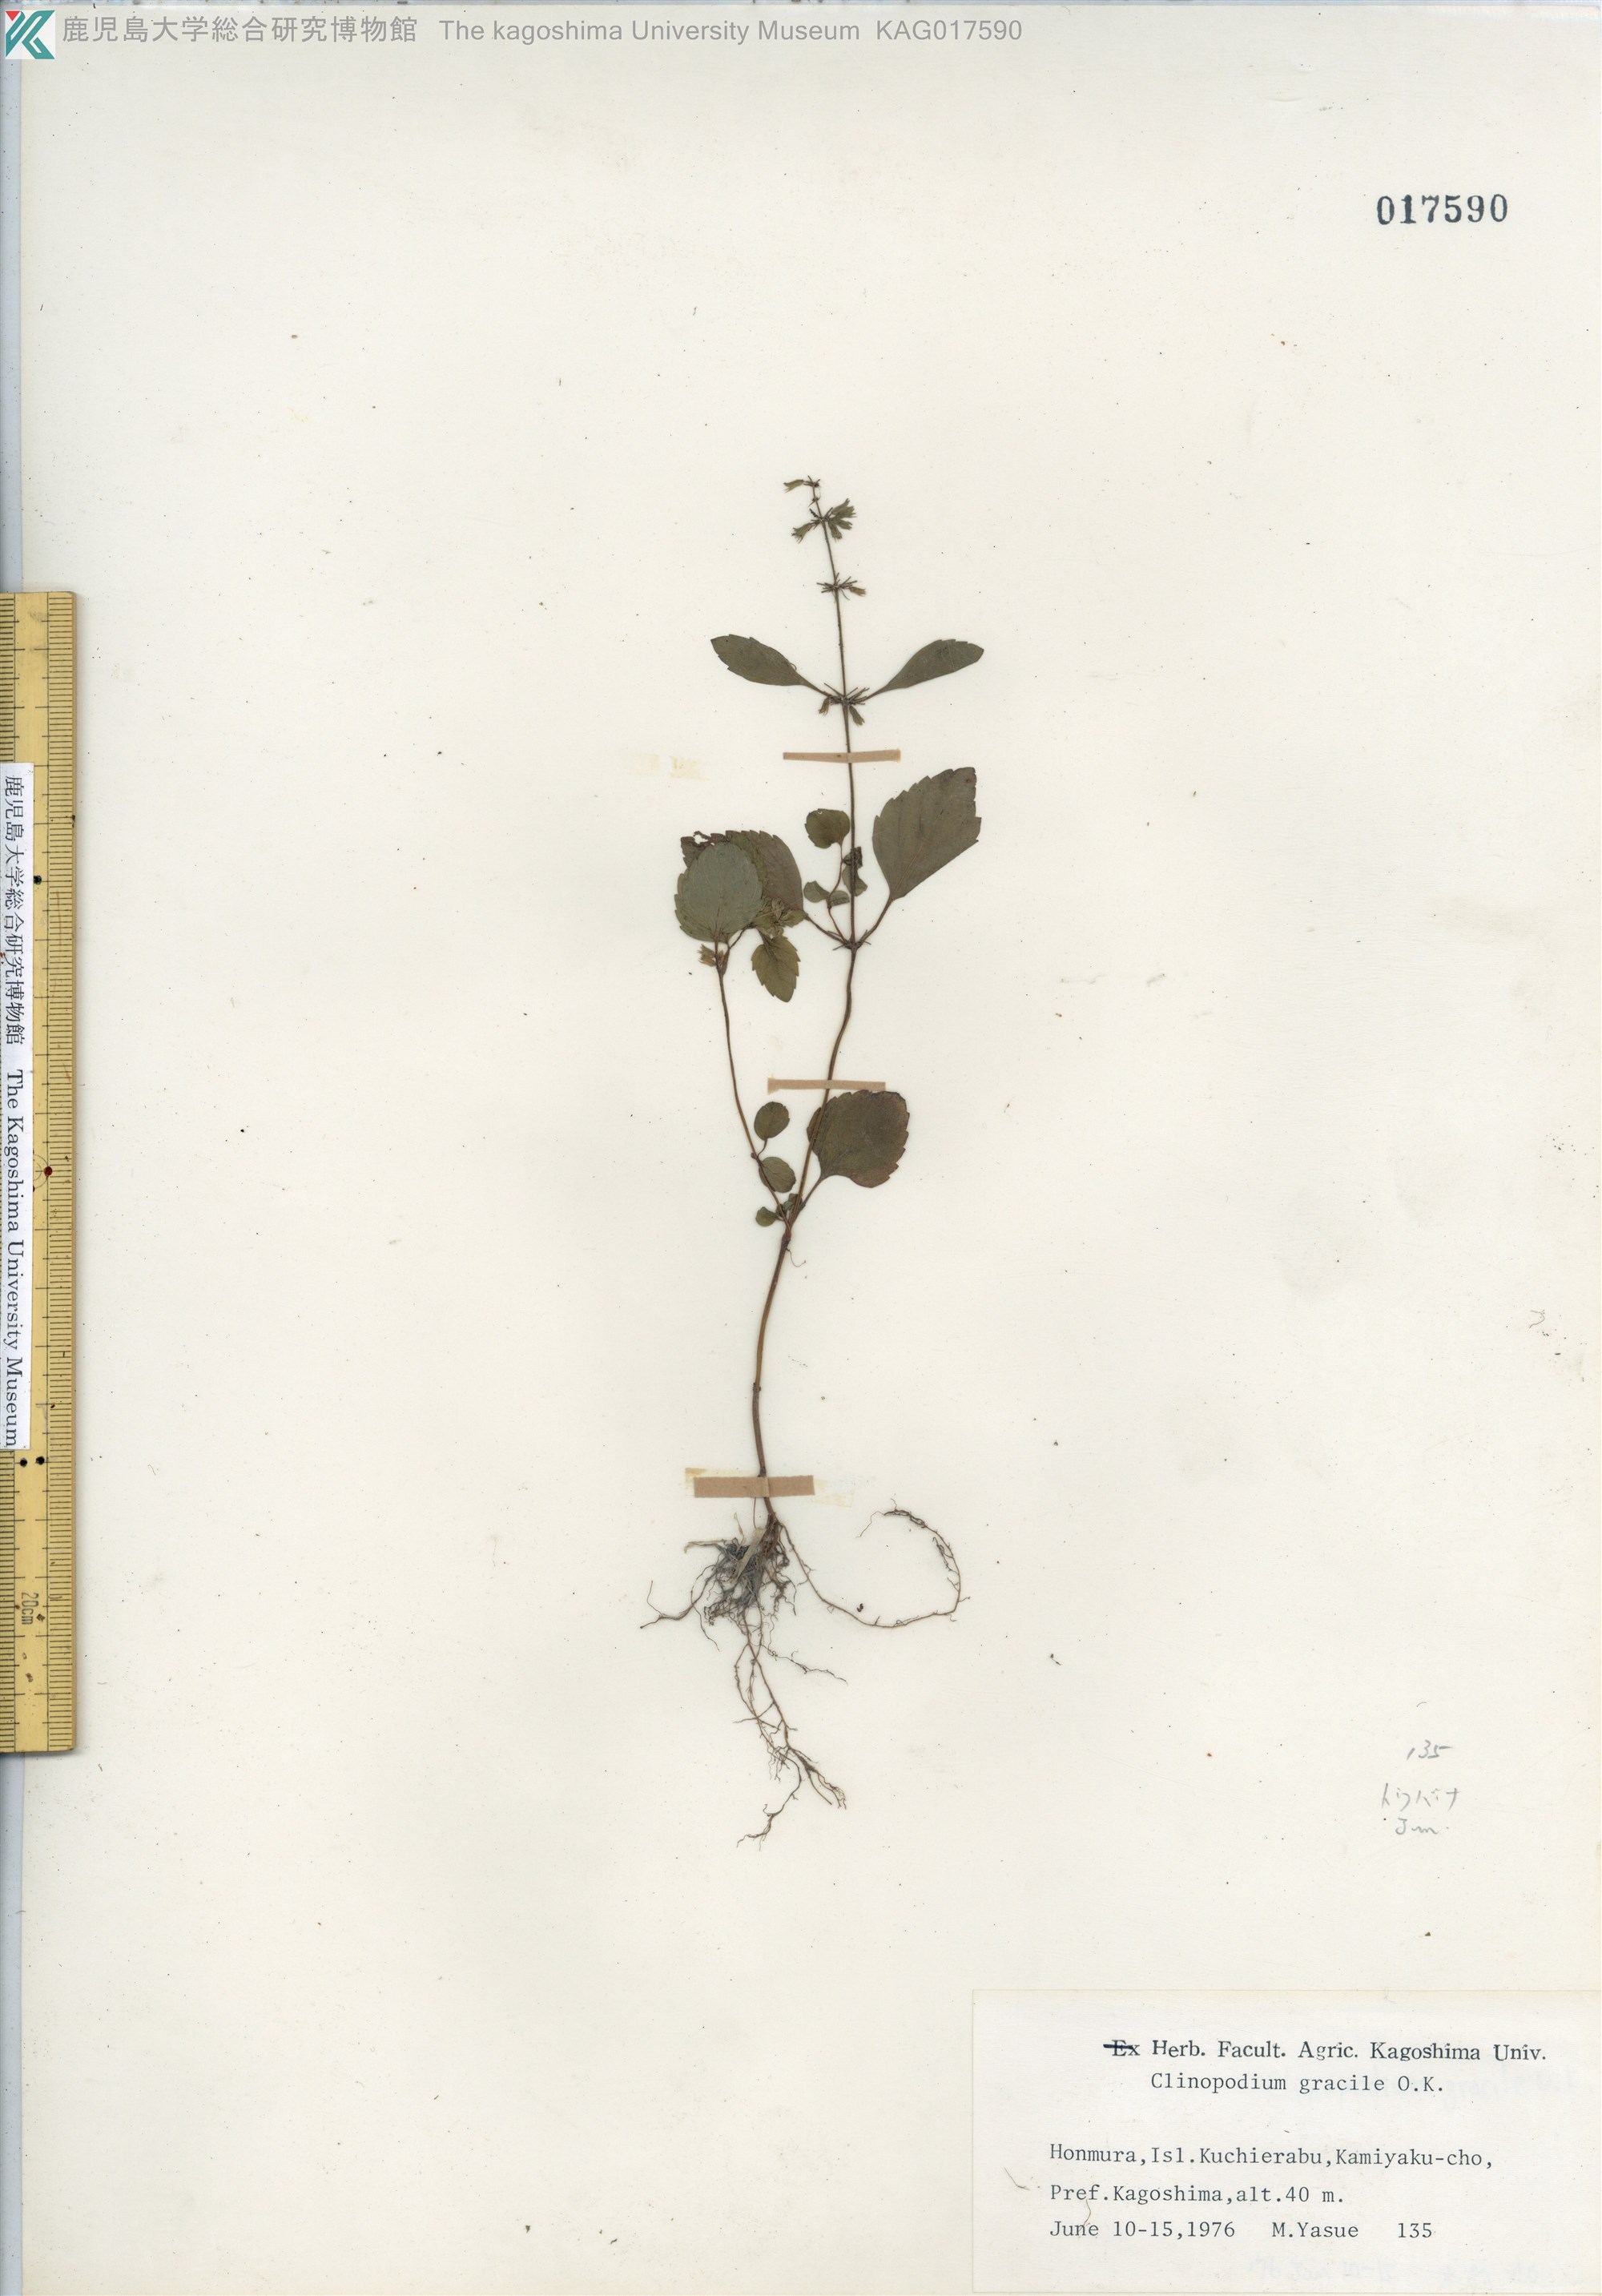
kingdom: Plantae
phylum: Tracheophyta
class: Magnoliopsida
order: Lamiales
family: Lamiaceae
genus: Clinopodium
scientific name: Clinopodium gracile
